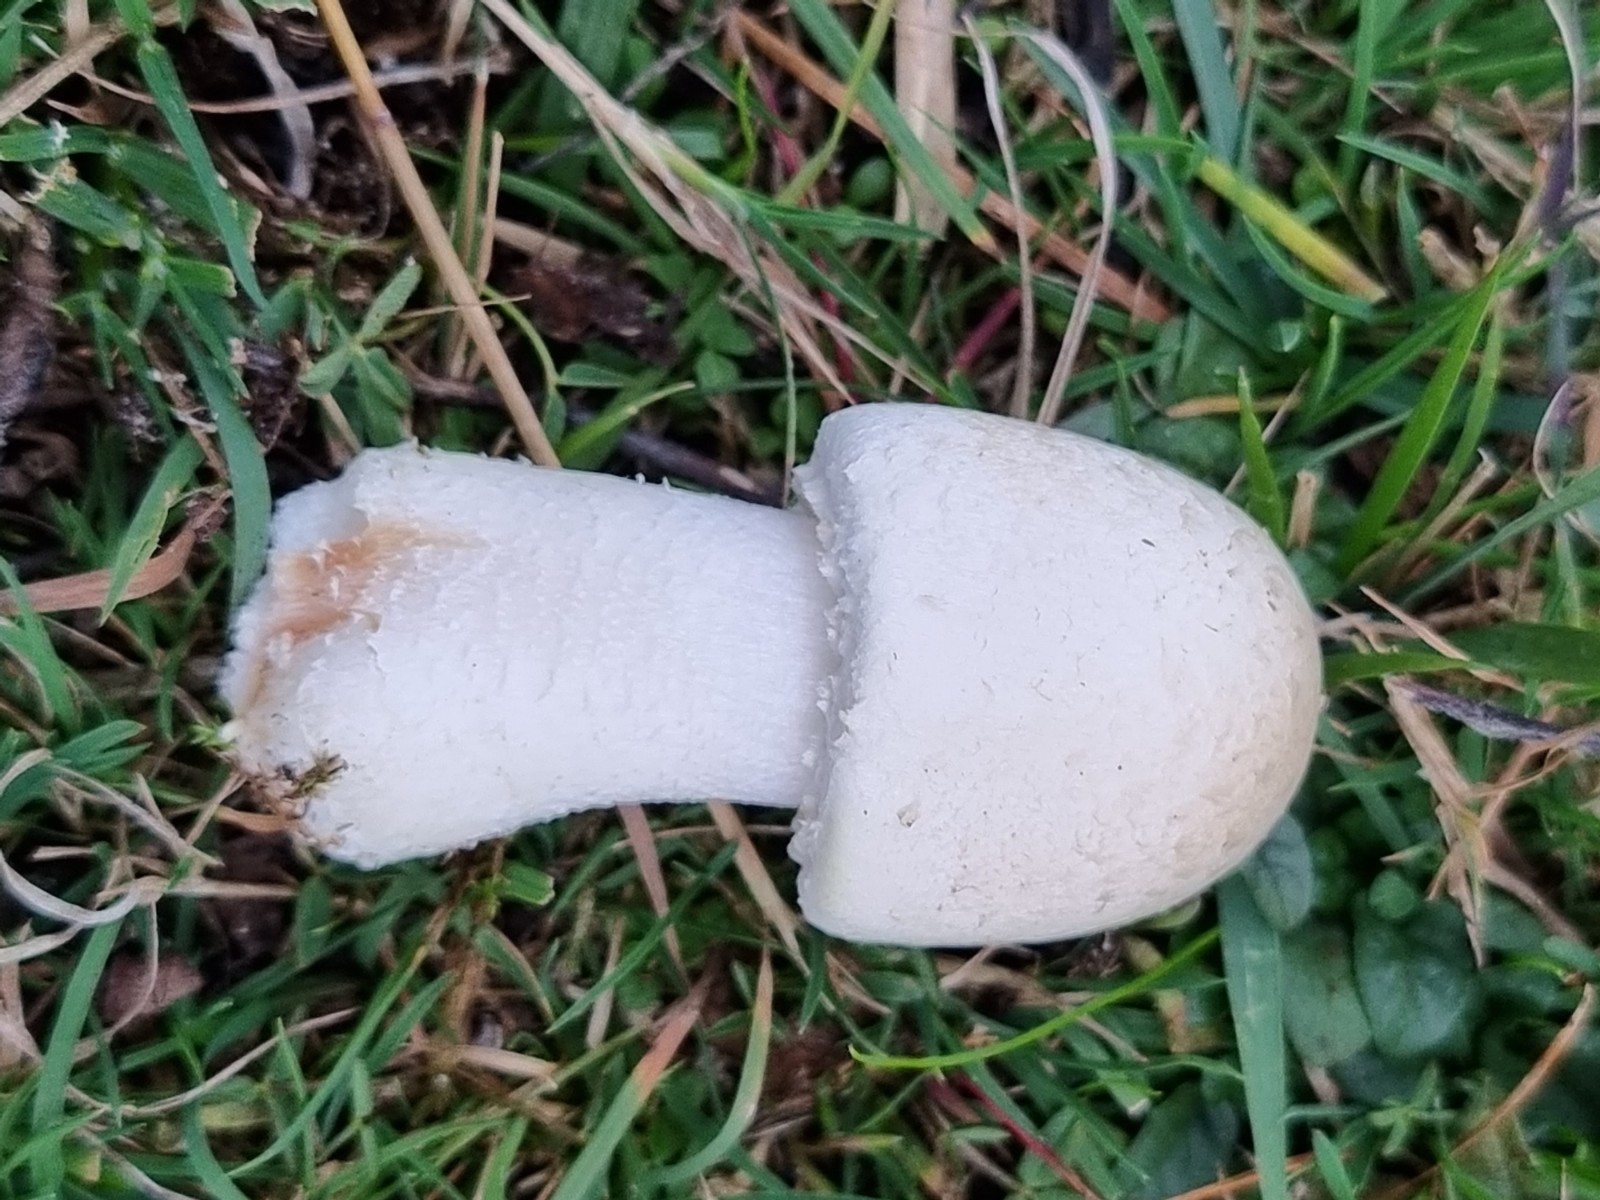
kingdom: Fungi
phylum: Basidiomycota
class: Agaricomycetes
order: Agaricales
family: Agaricaceae
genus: Agaricus
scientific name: Agaricus
